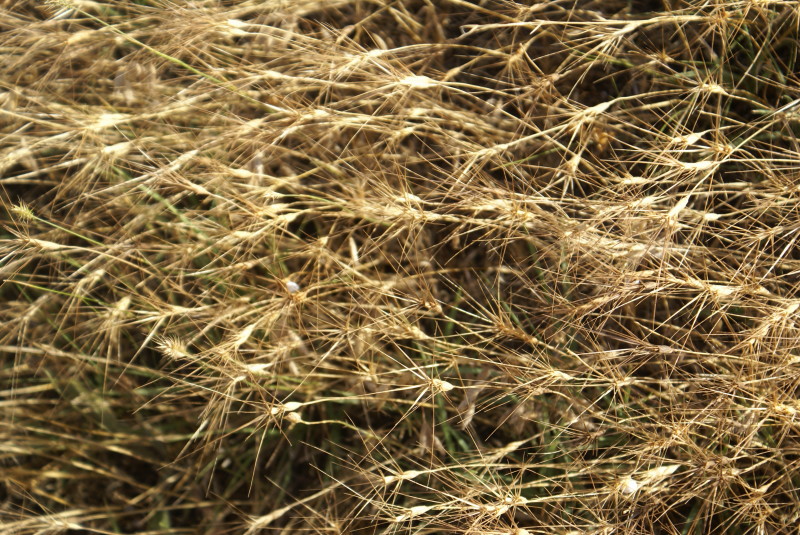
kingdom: Plantae
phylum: Tracheophyta
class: Liliopsida
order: Poales
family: Poaceae
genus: Hordeum
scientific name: Hordeum marinum
